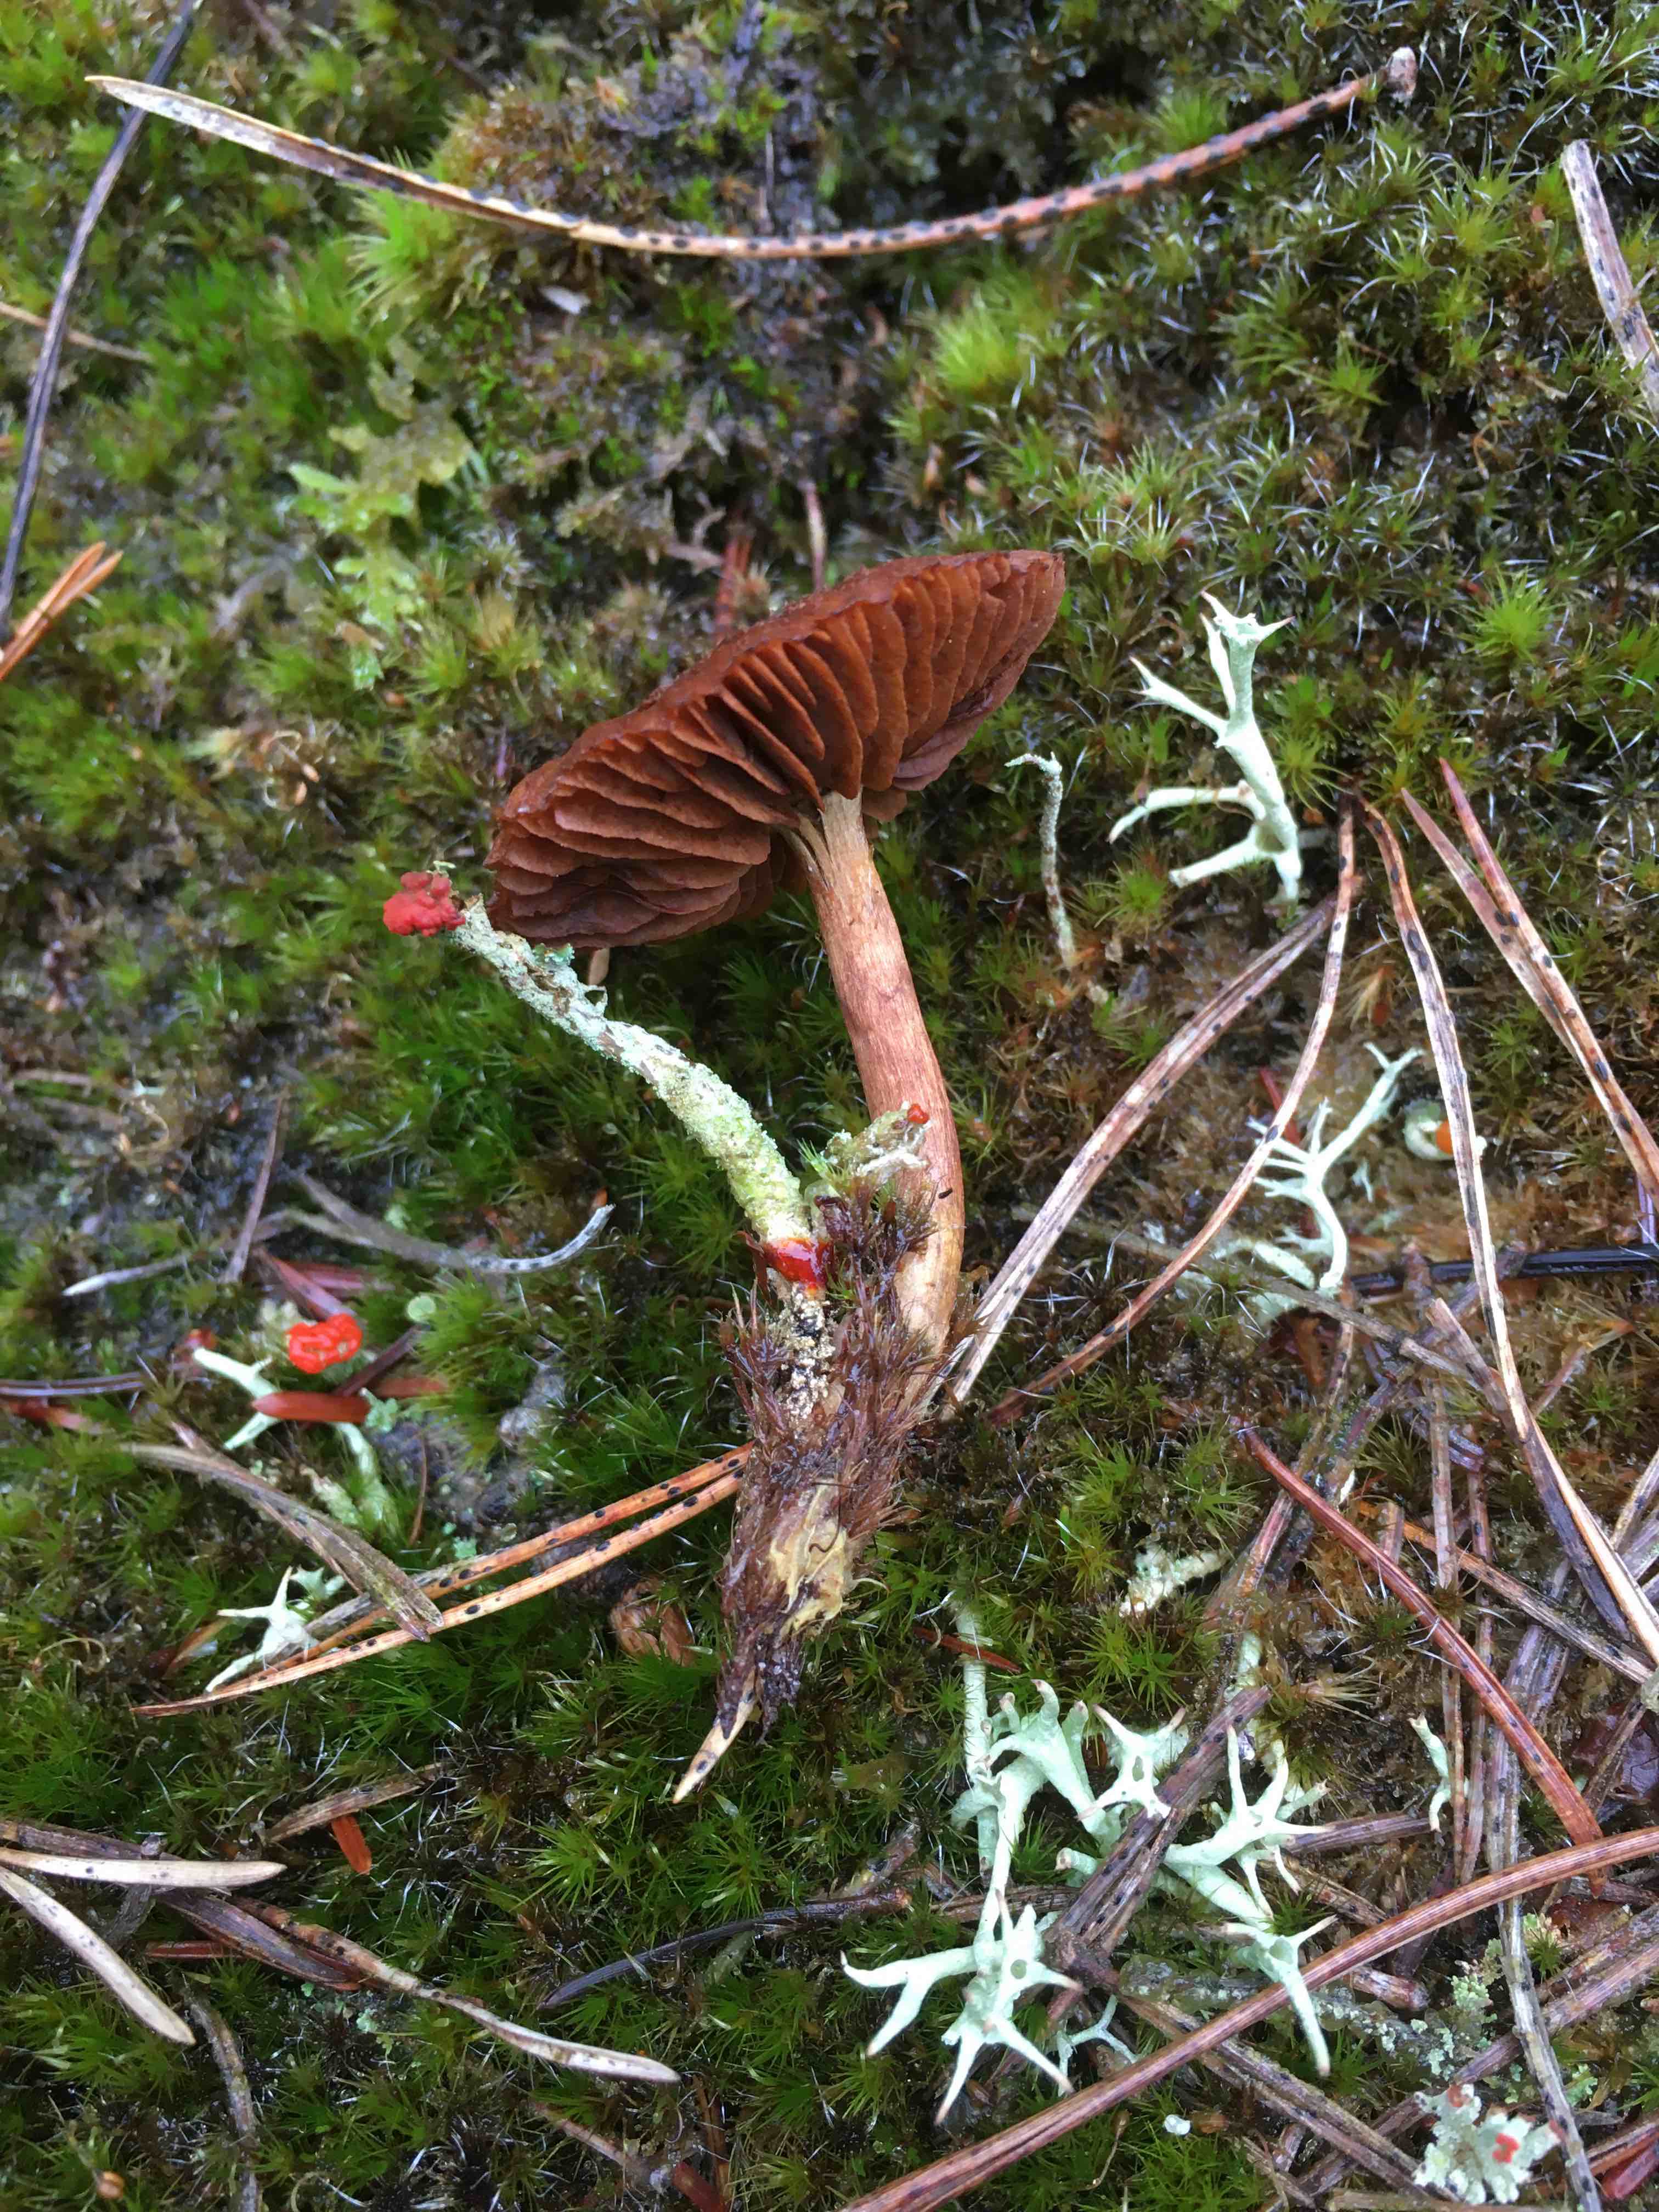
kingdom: Fungi
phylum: Ascomycota
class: Lecanoromycetes
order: Lecanorales
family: Cladoniaceae
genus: Cladonia
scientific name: Cladonia floerkeana
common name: lakrød bægerlav
